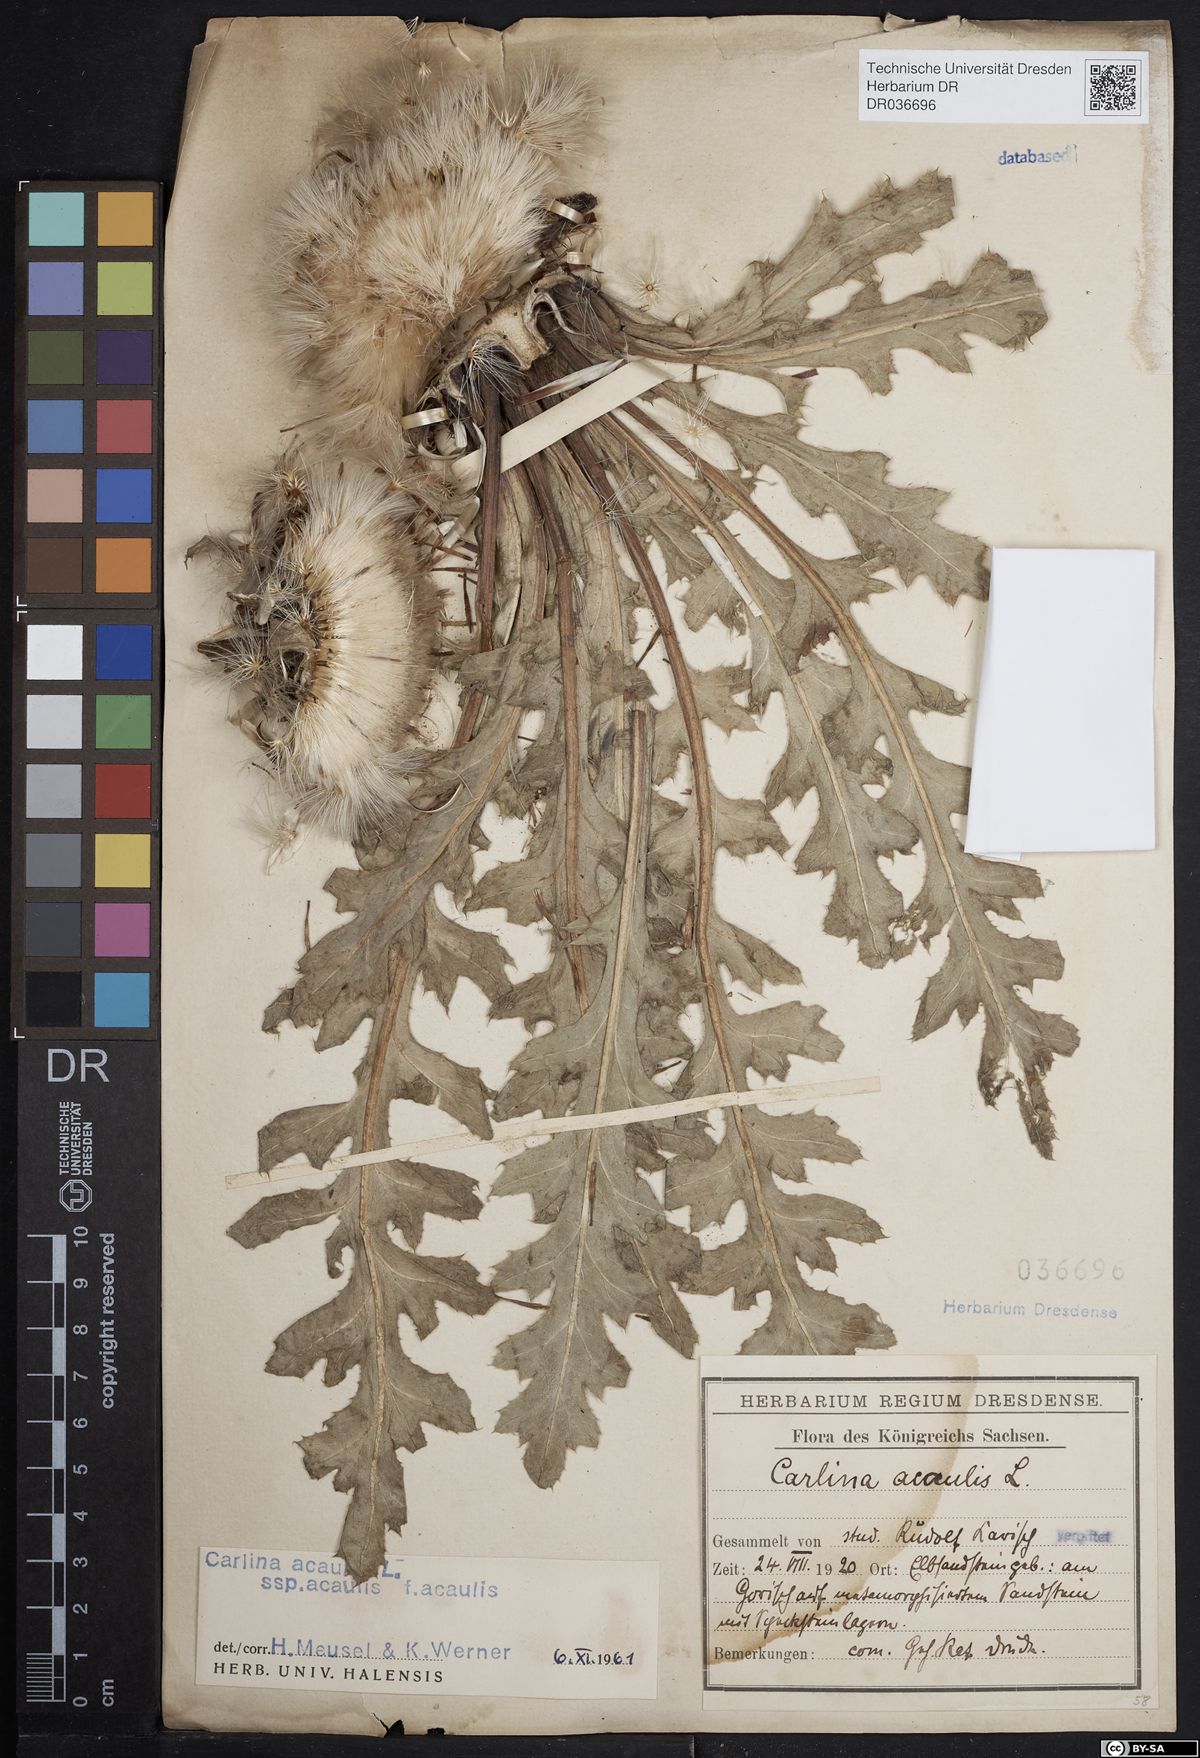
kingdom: Plantae
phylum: Tracheophyta
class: Magnoliopsida
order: Asterales
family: Asteraceae
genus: Carlina
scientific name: Carlina acaulis
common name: Stemless carline thistle
